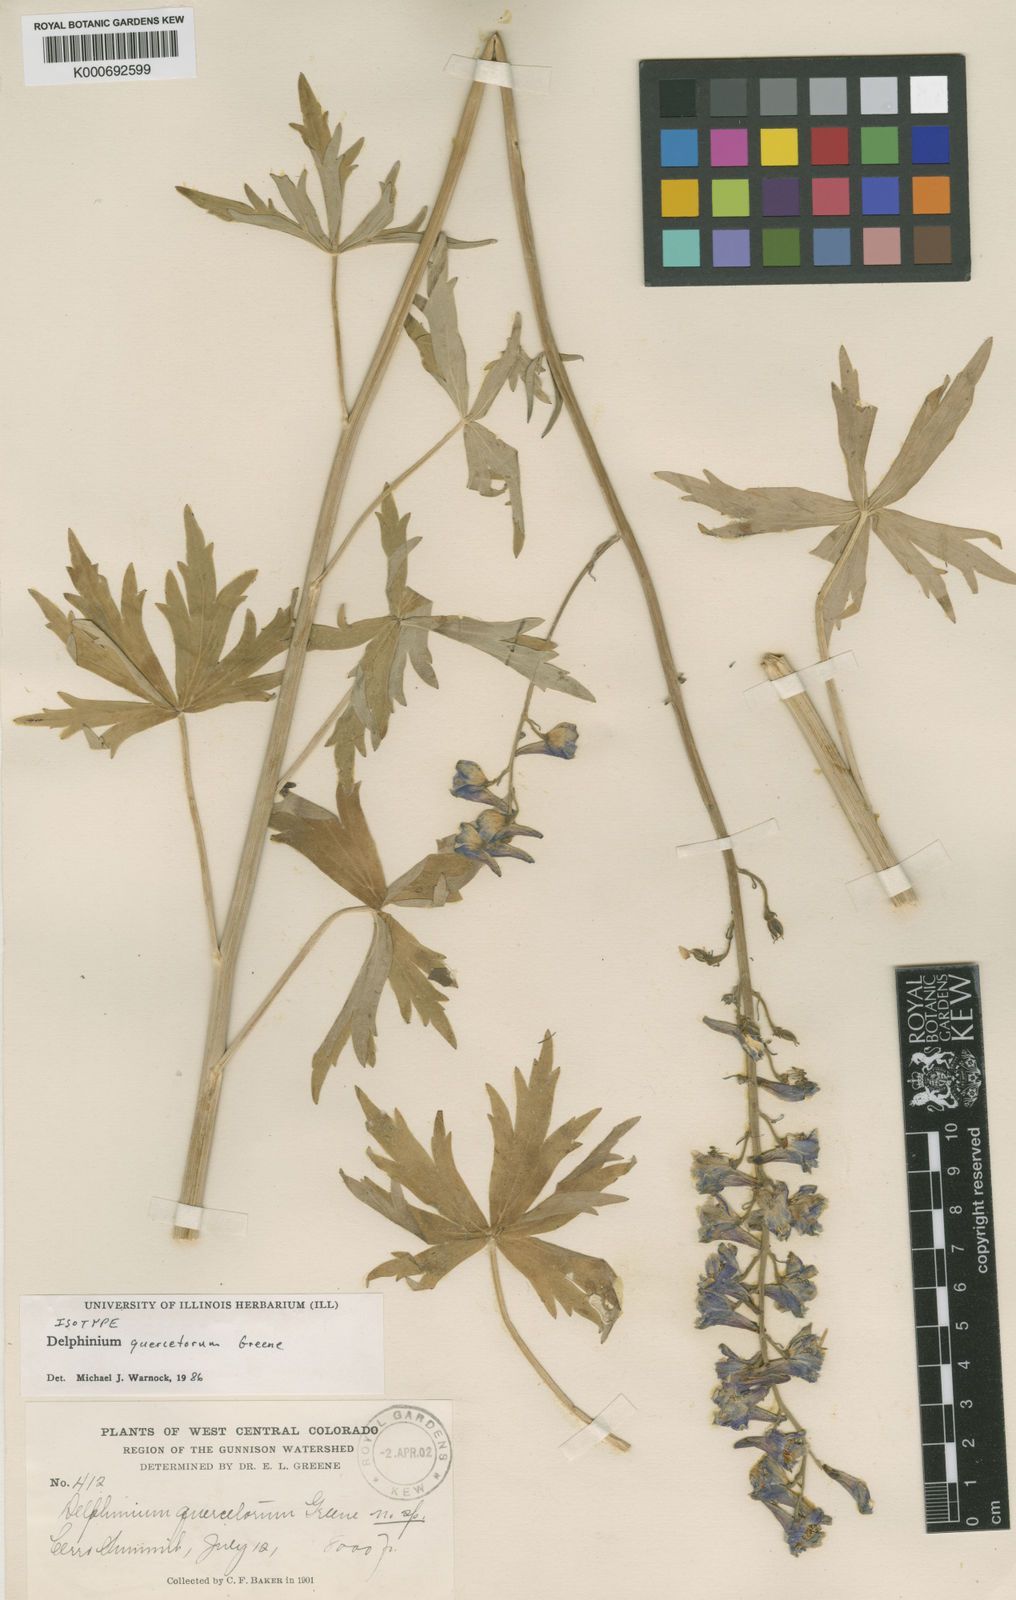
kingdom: Plantae
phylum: Tracheophyta
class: Magnoliopsida
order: Ranunculales
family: Ranunculaceae
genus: Delphinium
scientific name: Delphinium barbeyi
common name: Subalpine larkspur
